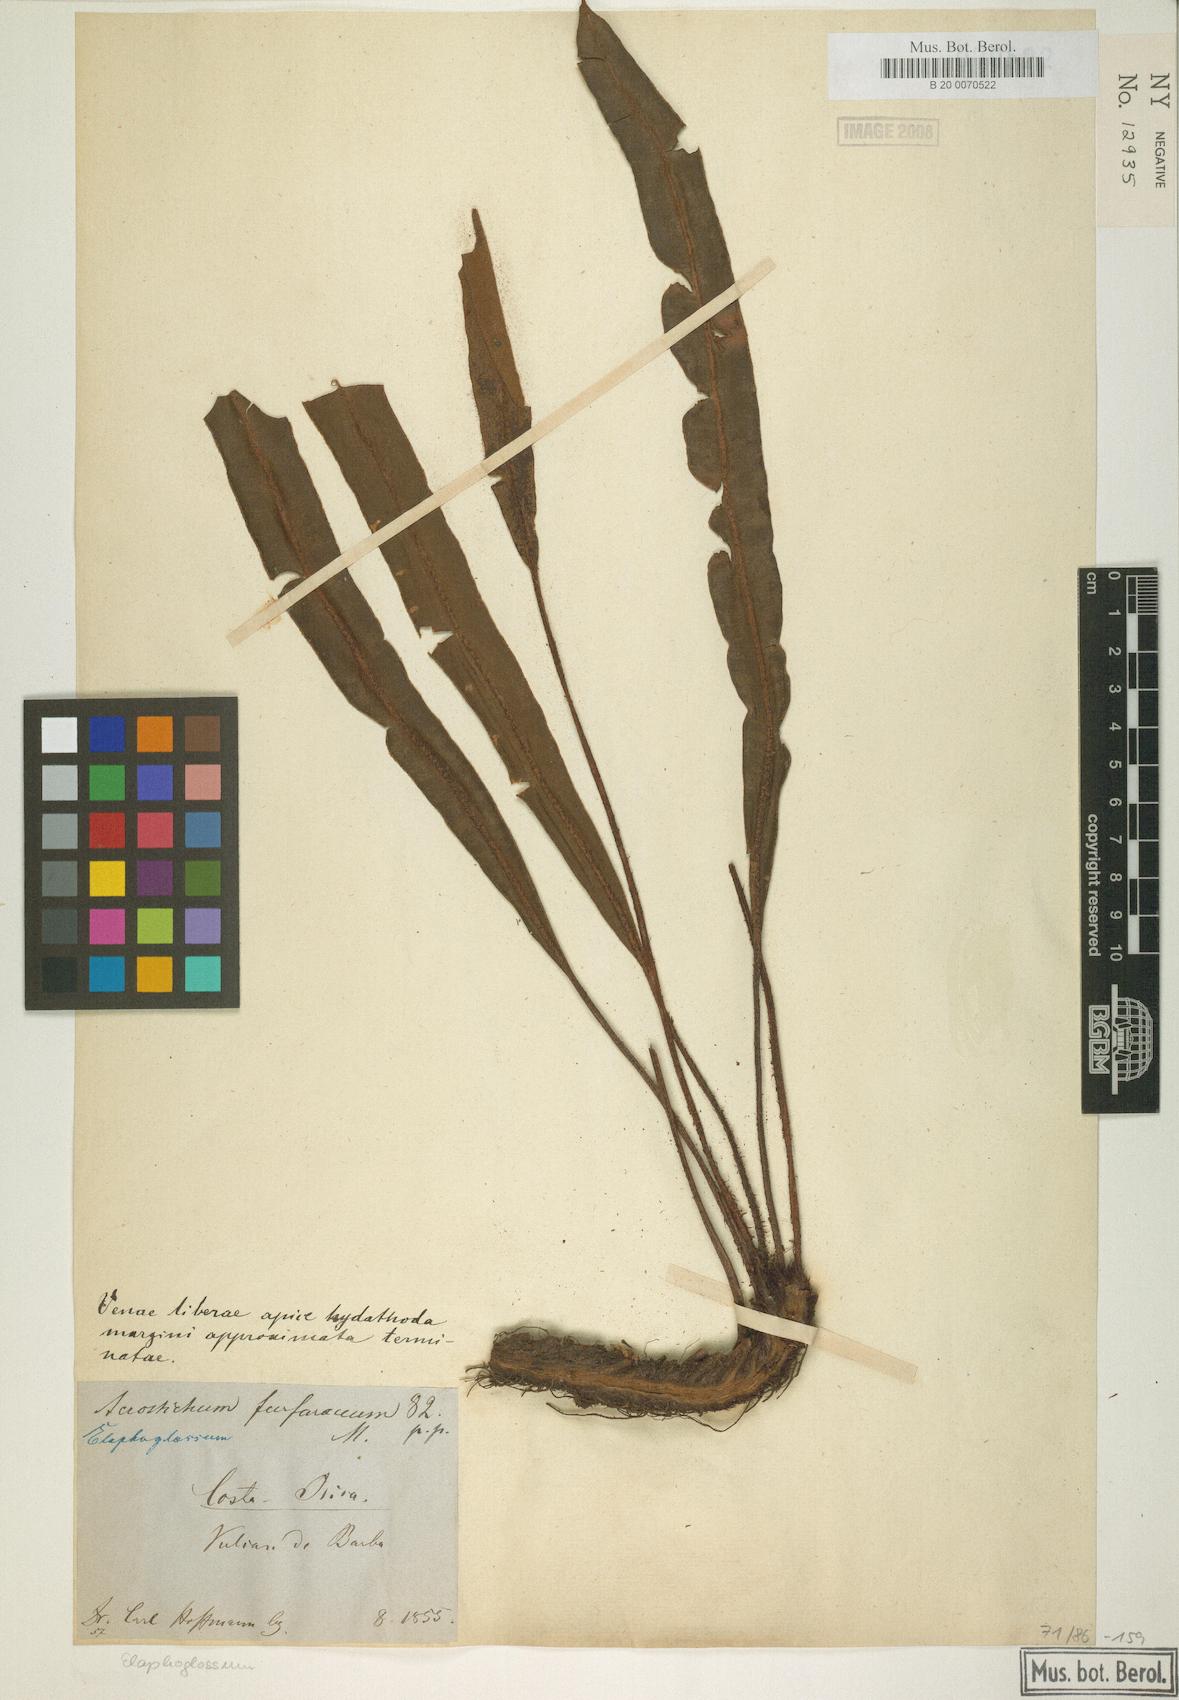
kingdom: Plantae
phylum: Tracheophyta
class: Polypodiopsida
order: Polypodiales
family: Dryopteridaceae
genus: Elaphoglossum
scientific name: Elaphoglossum furfuraceum
